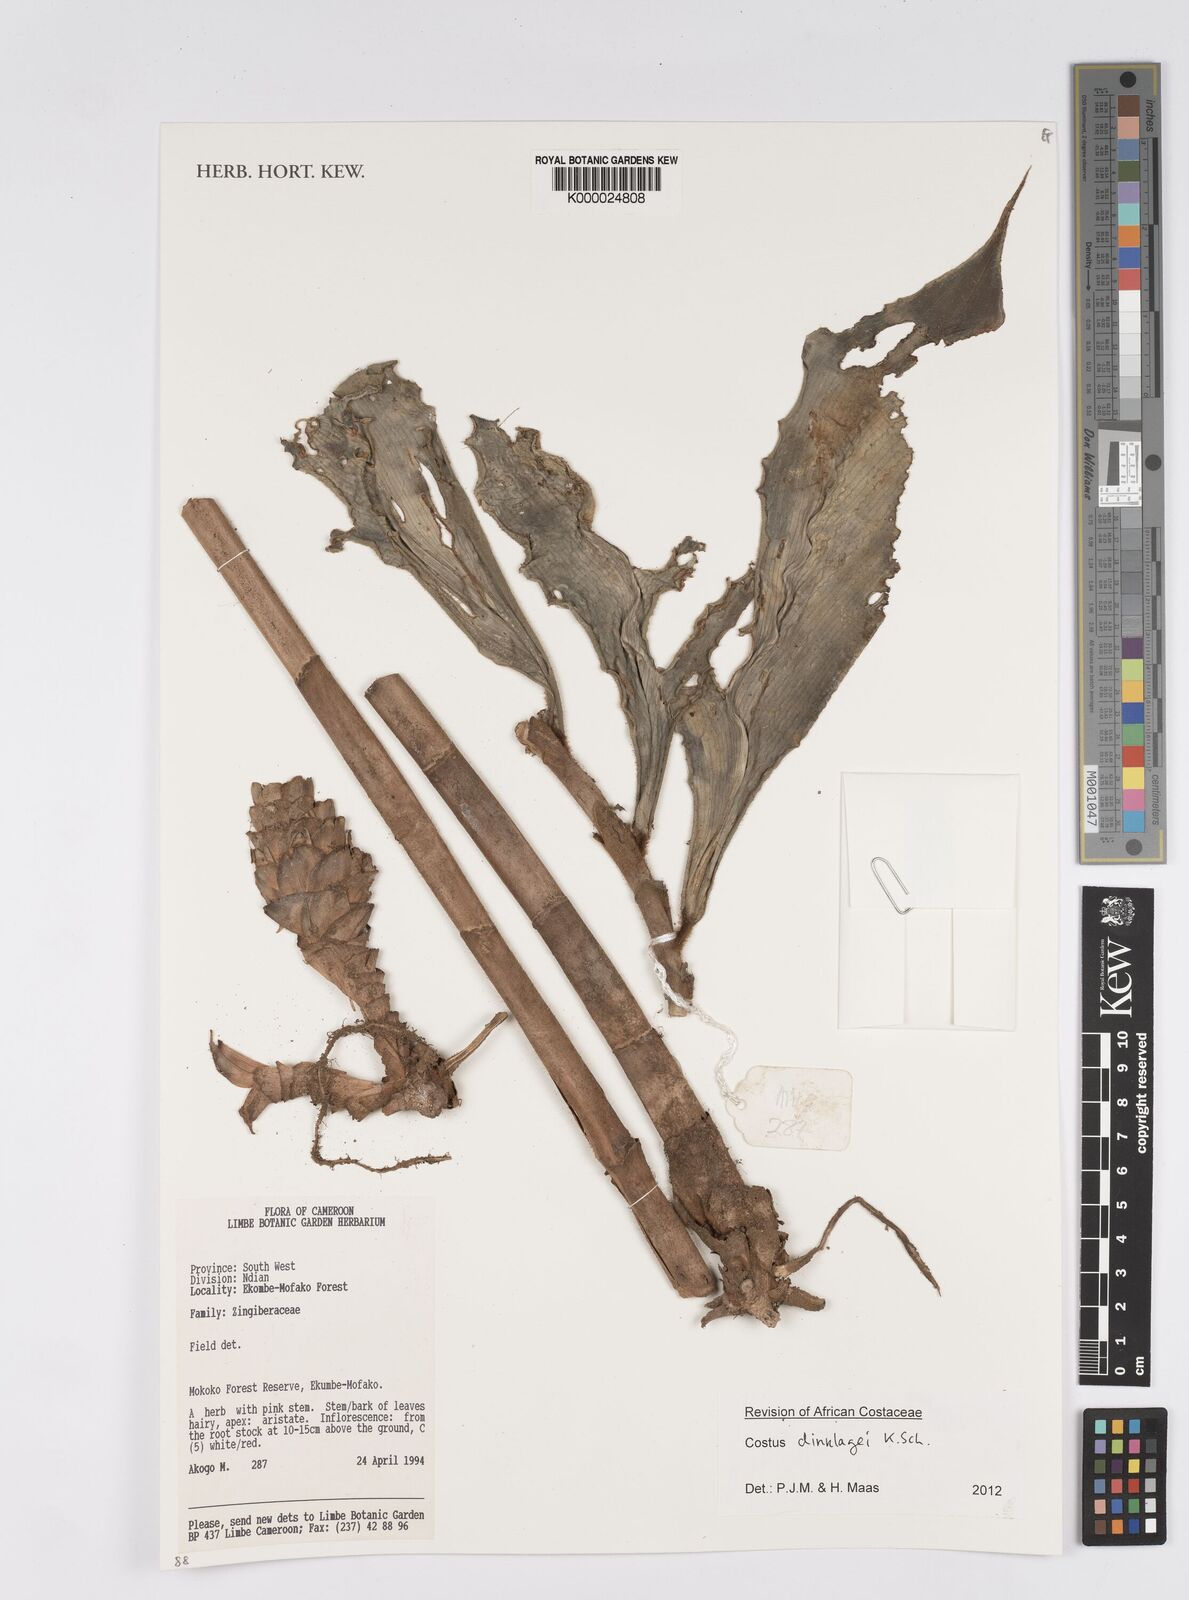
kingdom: Plantae
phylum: Tracheophyta
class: Liliopsida
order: Zingiberales
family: Costaceae
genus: Costus
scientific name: Costus dinklagei
